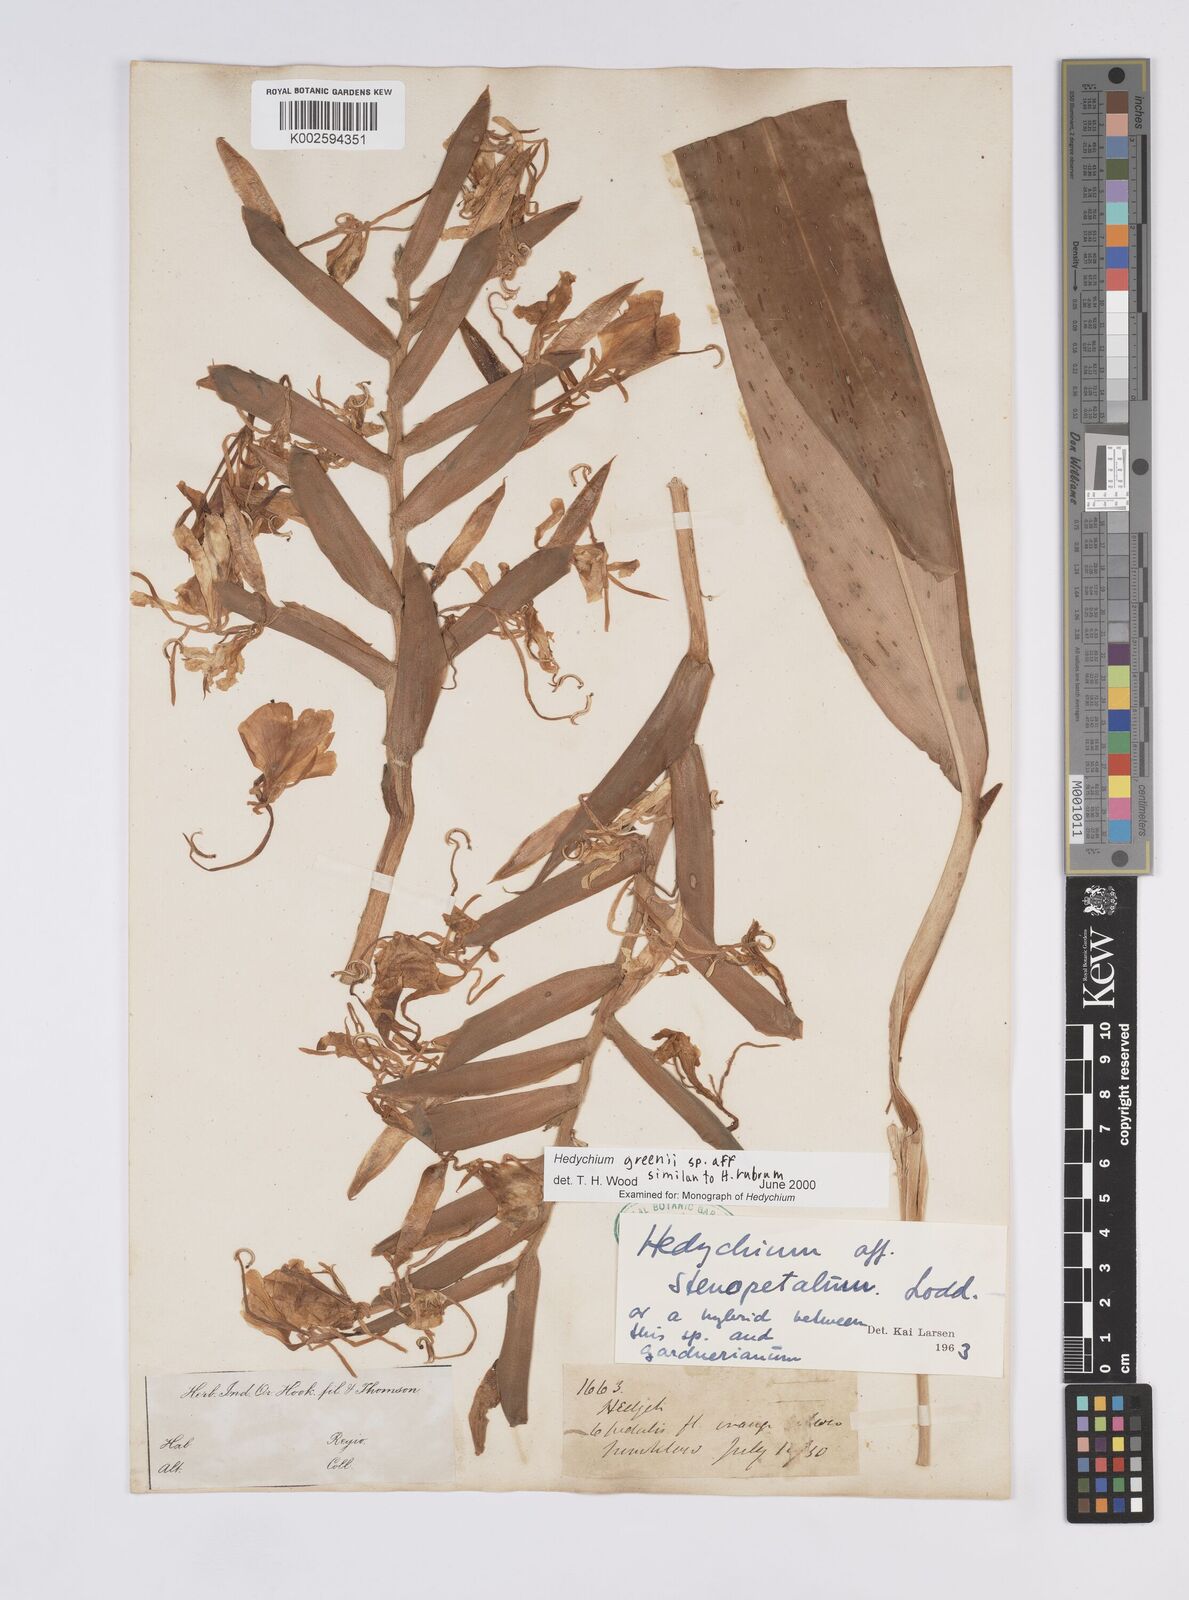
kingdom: Plantae
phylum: Tracheophyta
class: Liliopsida
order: Zingiberales
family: Zingiberaceae
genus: Hedychium
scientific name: Hedychium greenii
